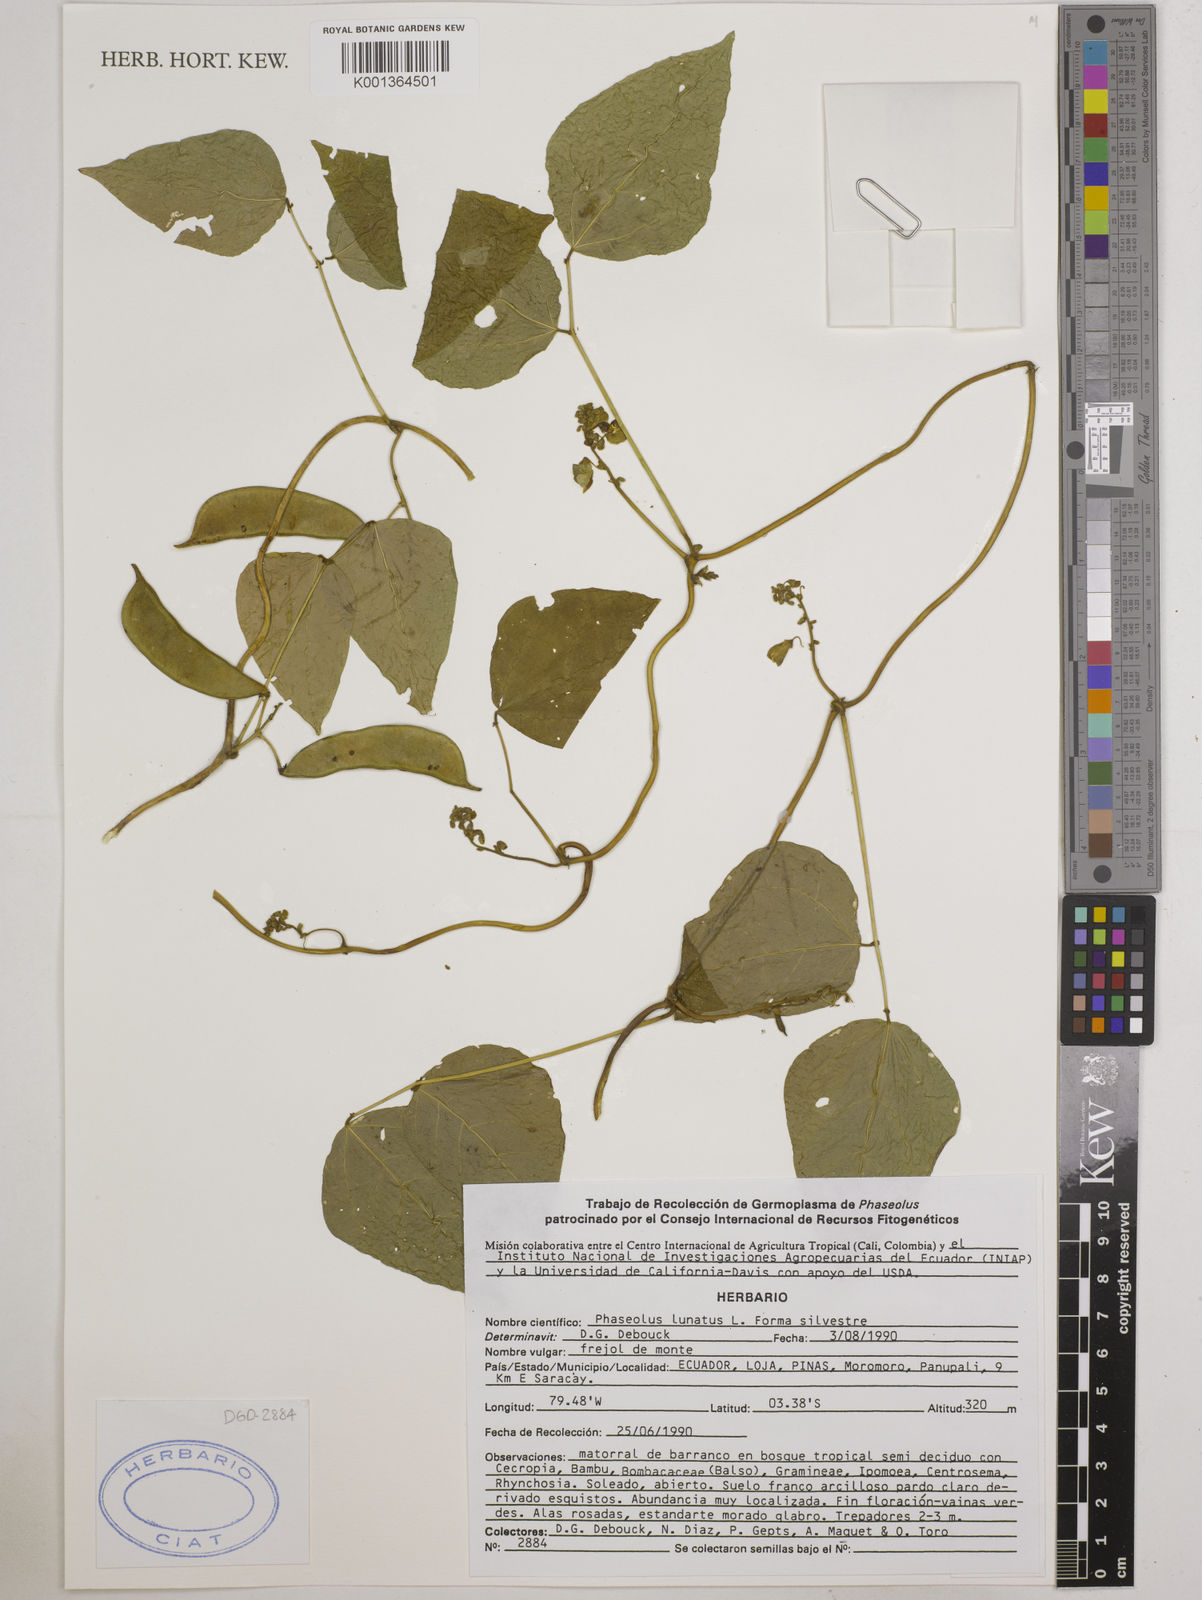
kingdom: Plantae
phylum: Tracheophyta
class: Magnoliopsida
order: Fabales
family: Fabaceae
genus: Phaseolus
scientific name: Phaseolus
